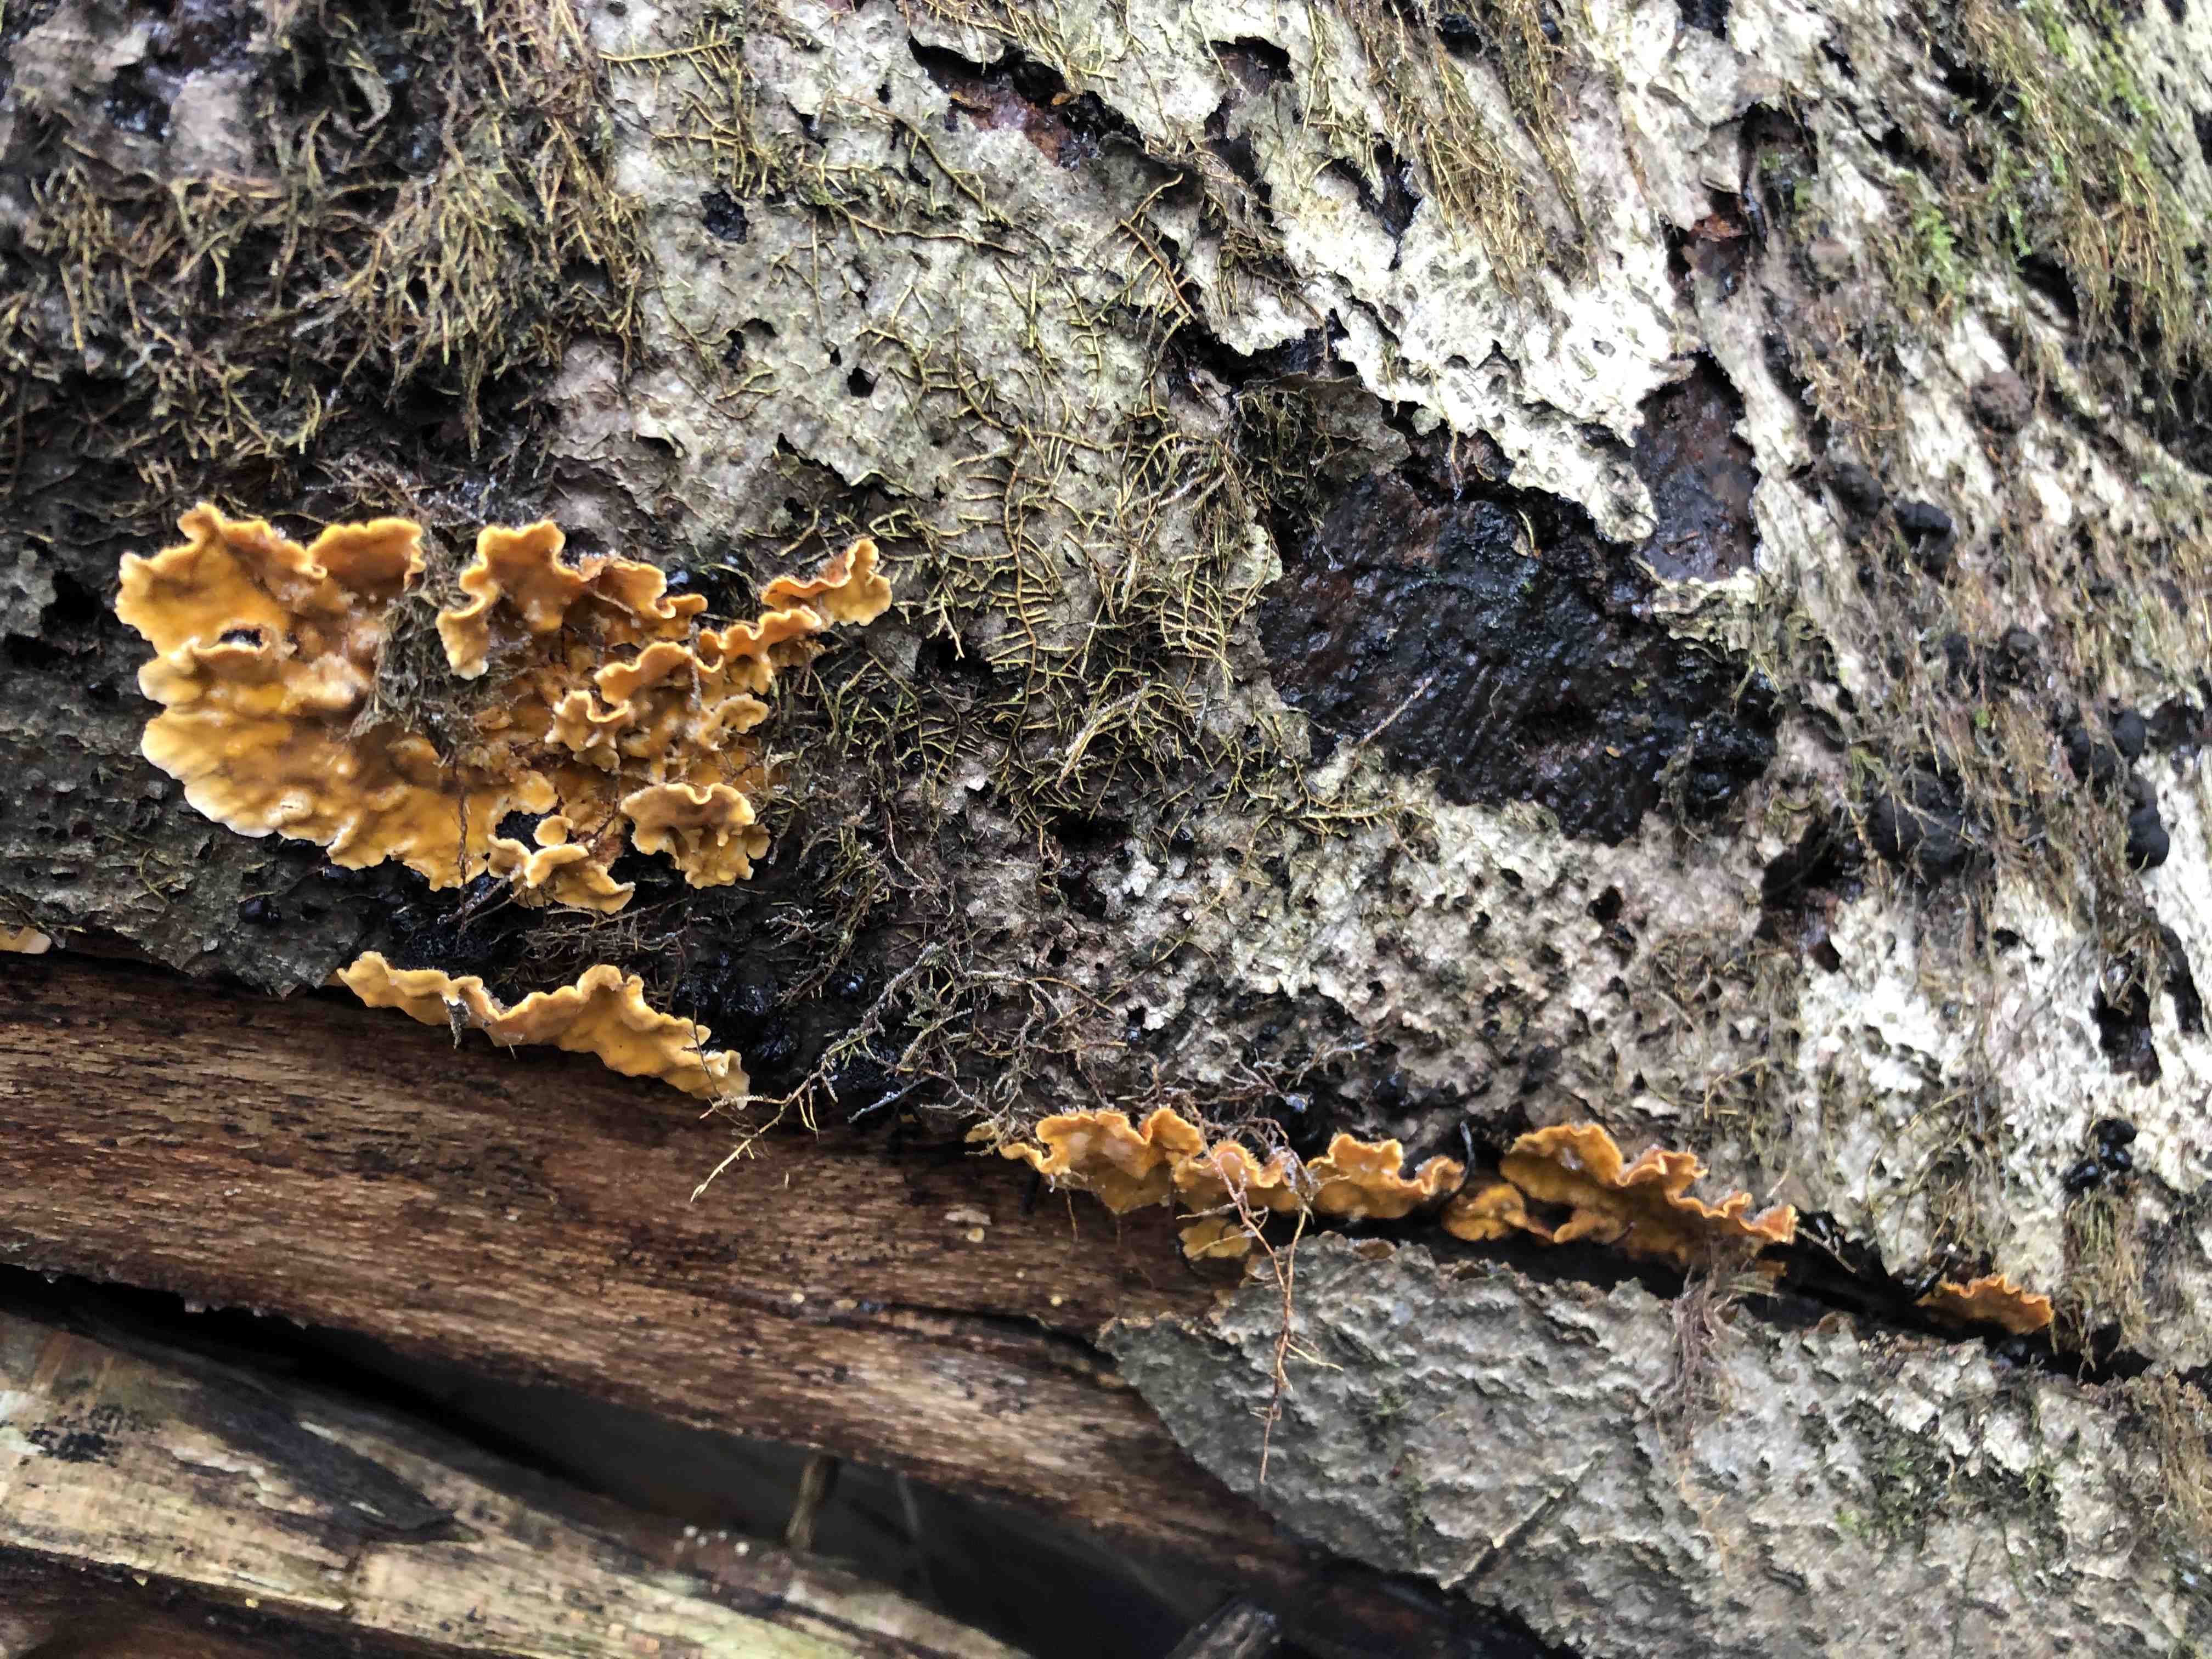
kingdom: Fungi
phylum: Basidiomycota
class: Agaricomycetes
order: Russulales
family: Stereaceae
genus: Stereum
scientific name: Stereum hirsutum
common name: håret lædersvamp
